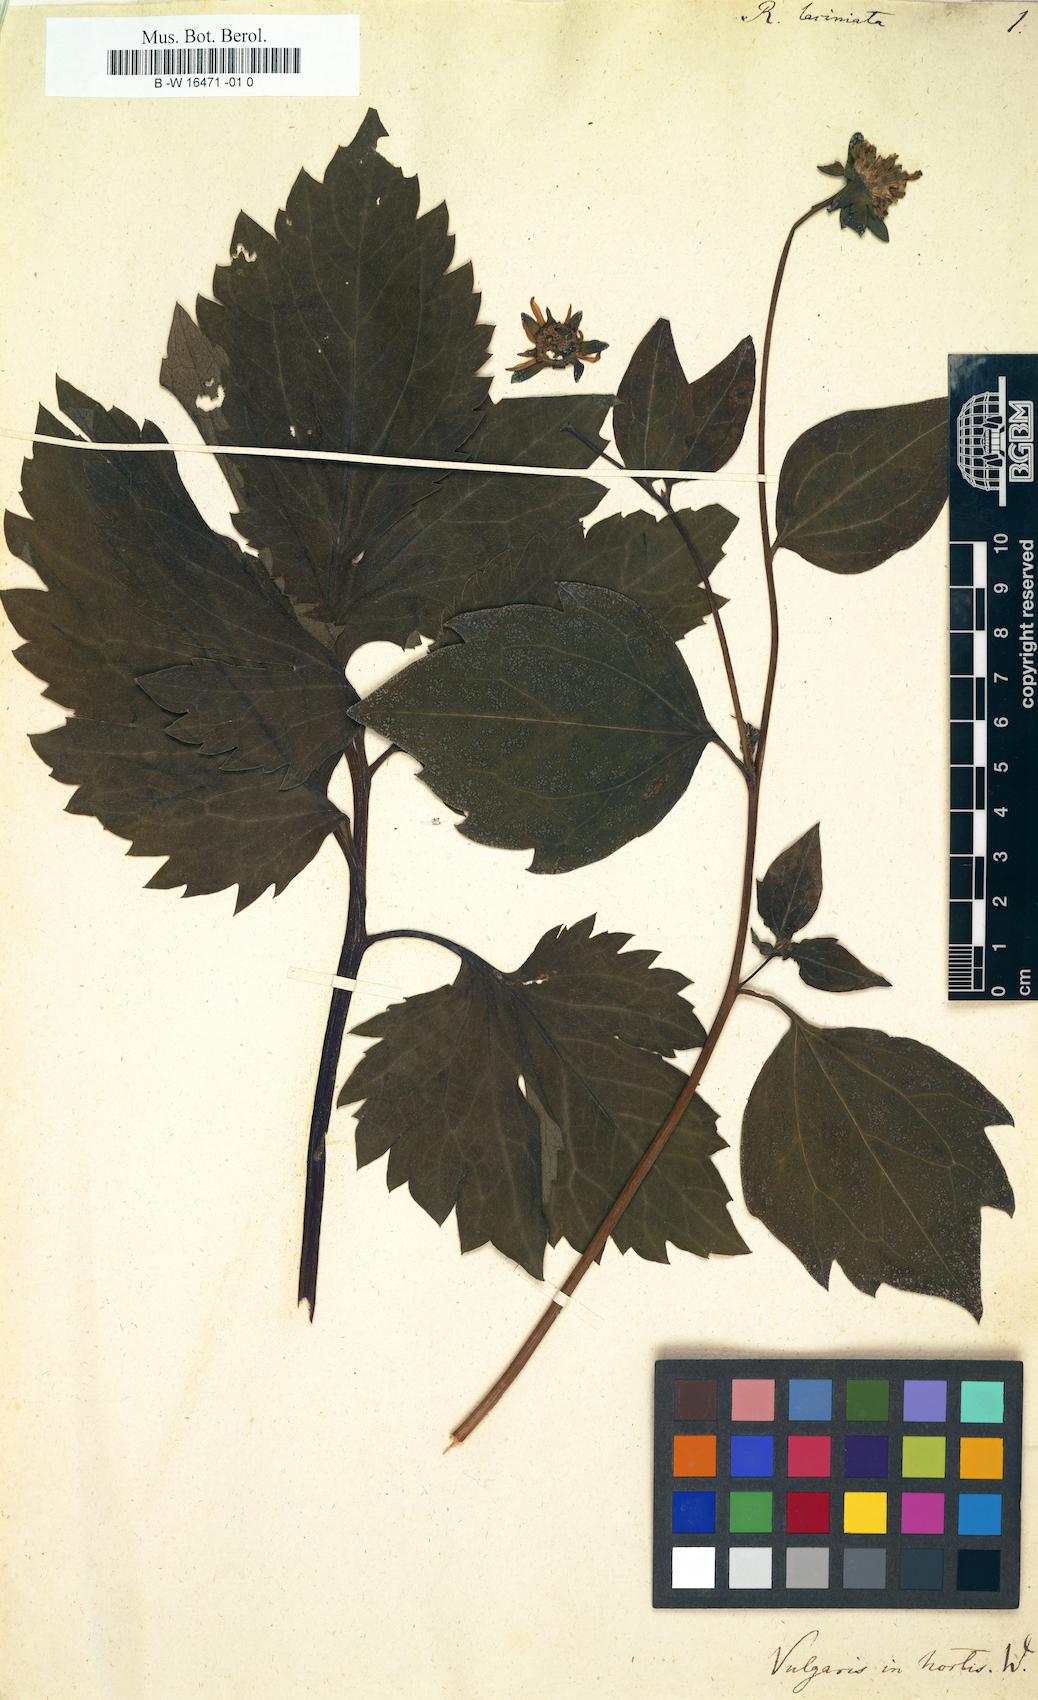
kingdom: Plantae
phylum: Tracheophyta
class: Magnoliopsida
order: Asterales
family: Asteraceae
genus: Rudbeckia
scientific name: Rudbeckia laciniata
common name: Coneflower
